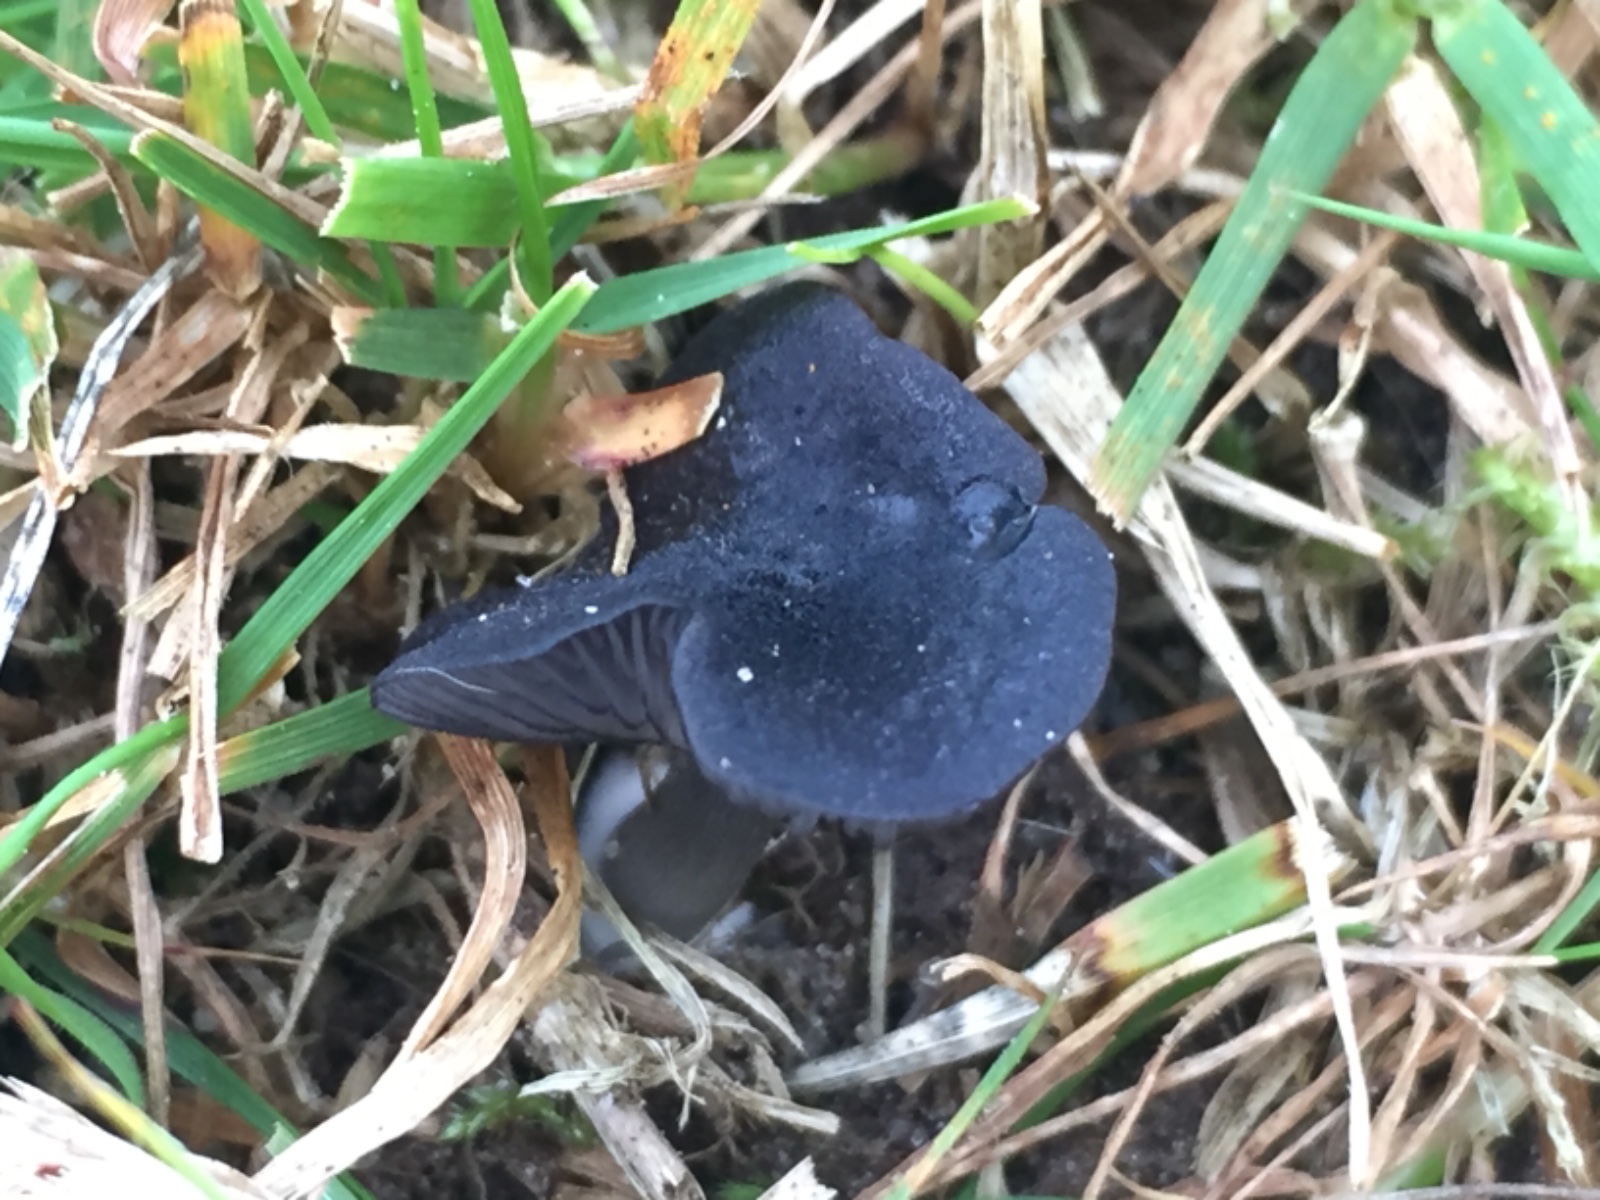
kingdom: Fungi
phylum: Basidiomycota
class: Agaricomycetes
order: Agaricales
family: Entolomataceae
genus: Entoloma
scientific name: Entoloma
